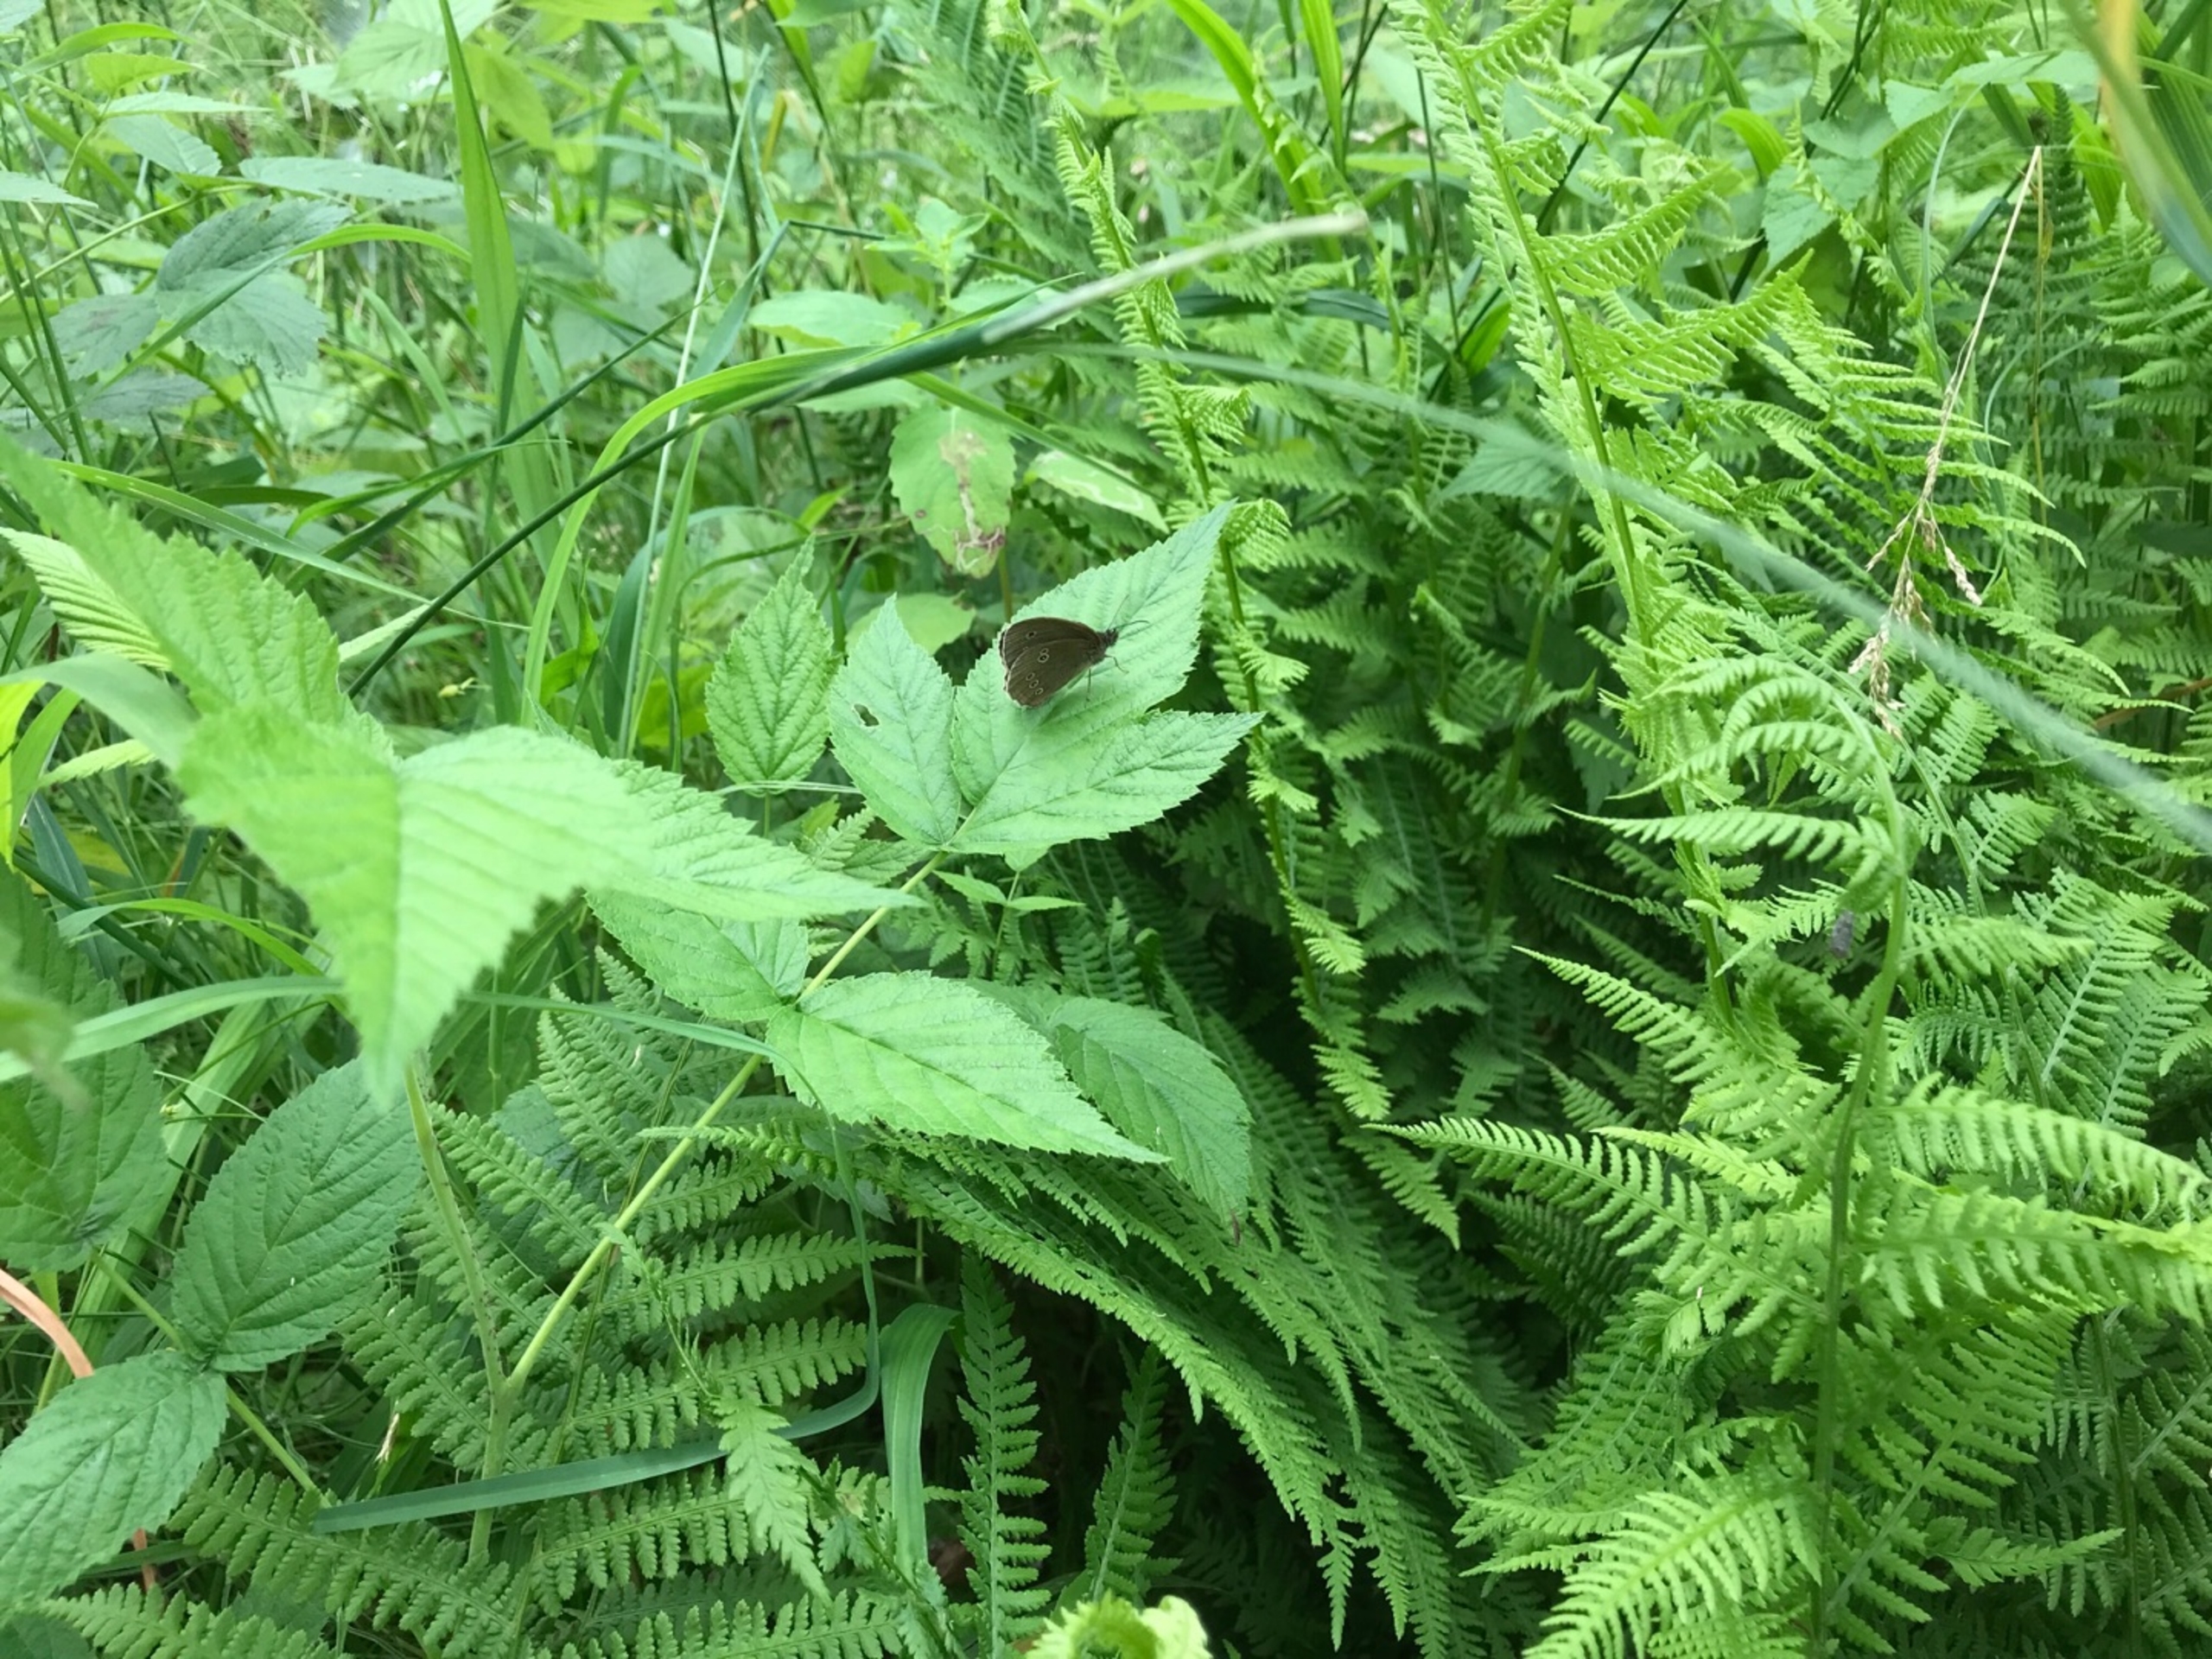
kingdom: Animalia
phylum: Arthropoda
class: Insecta
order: Lepidoptera
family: Nymphalidae
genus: Aphantopus
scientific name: Aphantopus hyperantus
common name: Engrandøje
